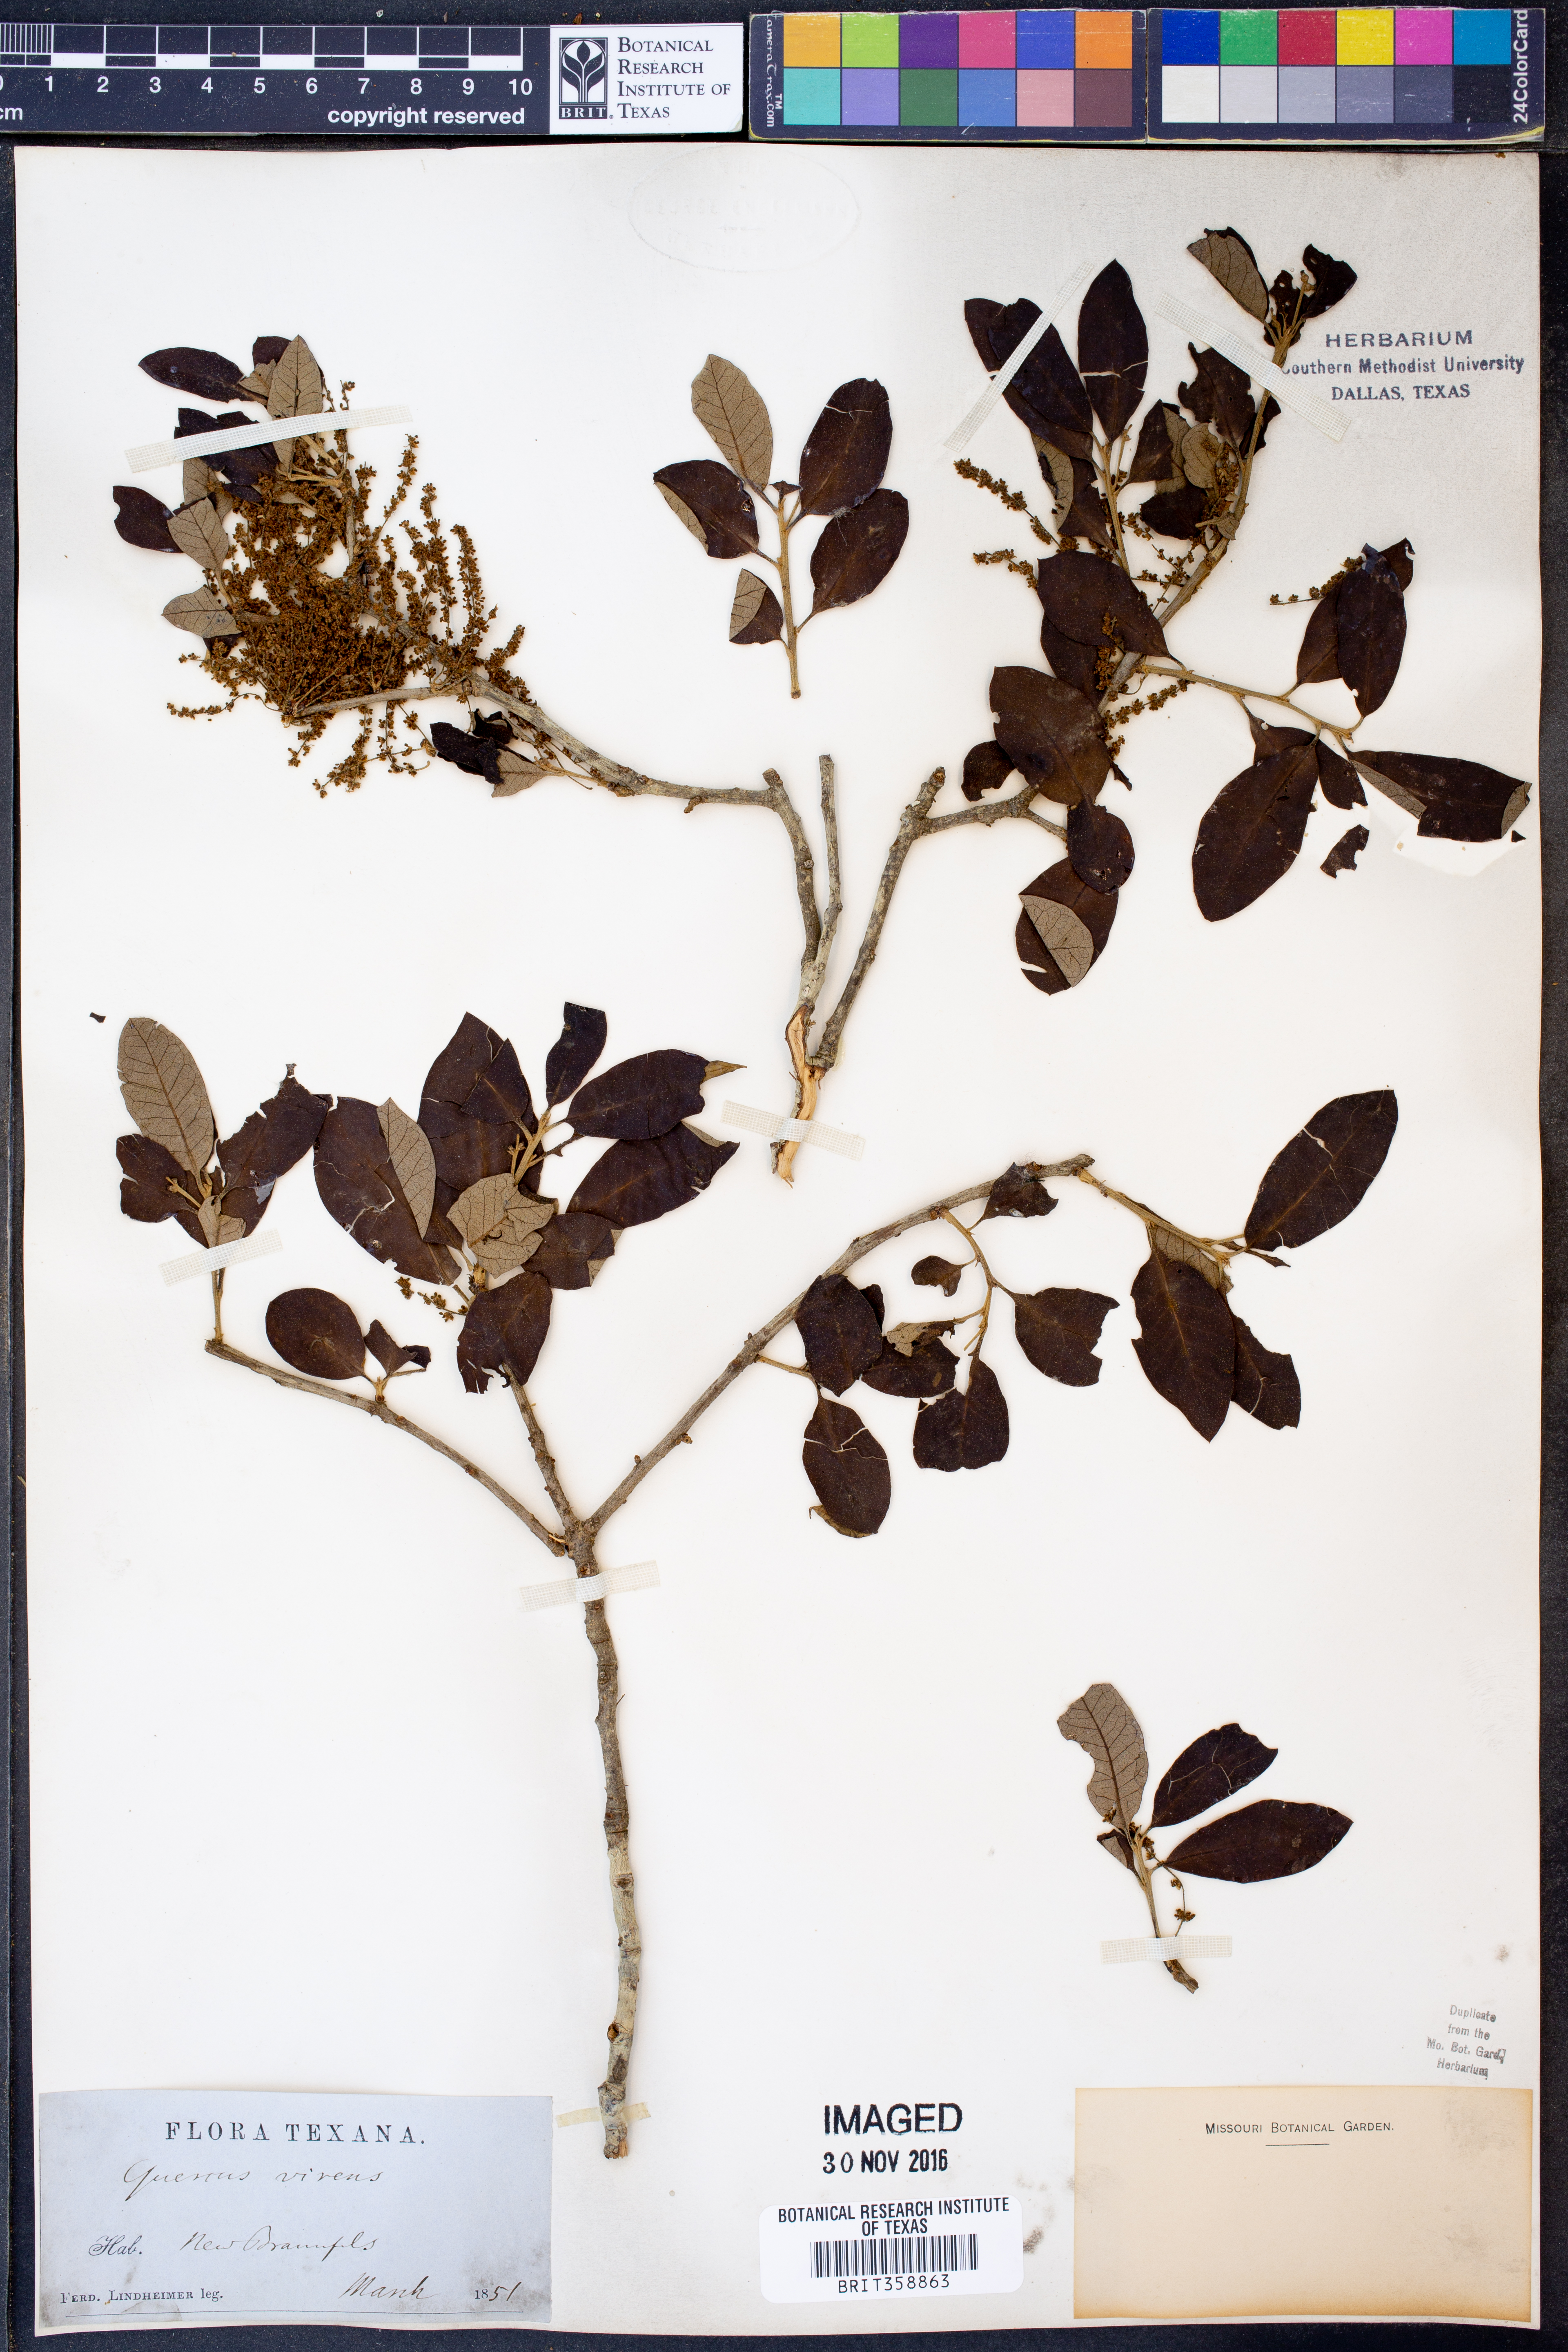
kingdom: Plantae
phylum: Tracheophyta
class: Magnoliopsida
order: Fagales
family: Fagaceae
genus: Quercus
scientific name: Quercus virginiana
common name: Southern live oak
